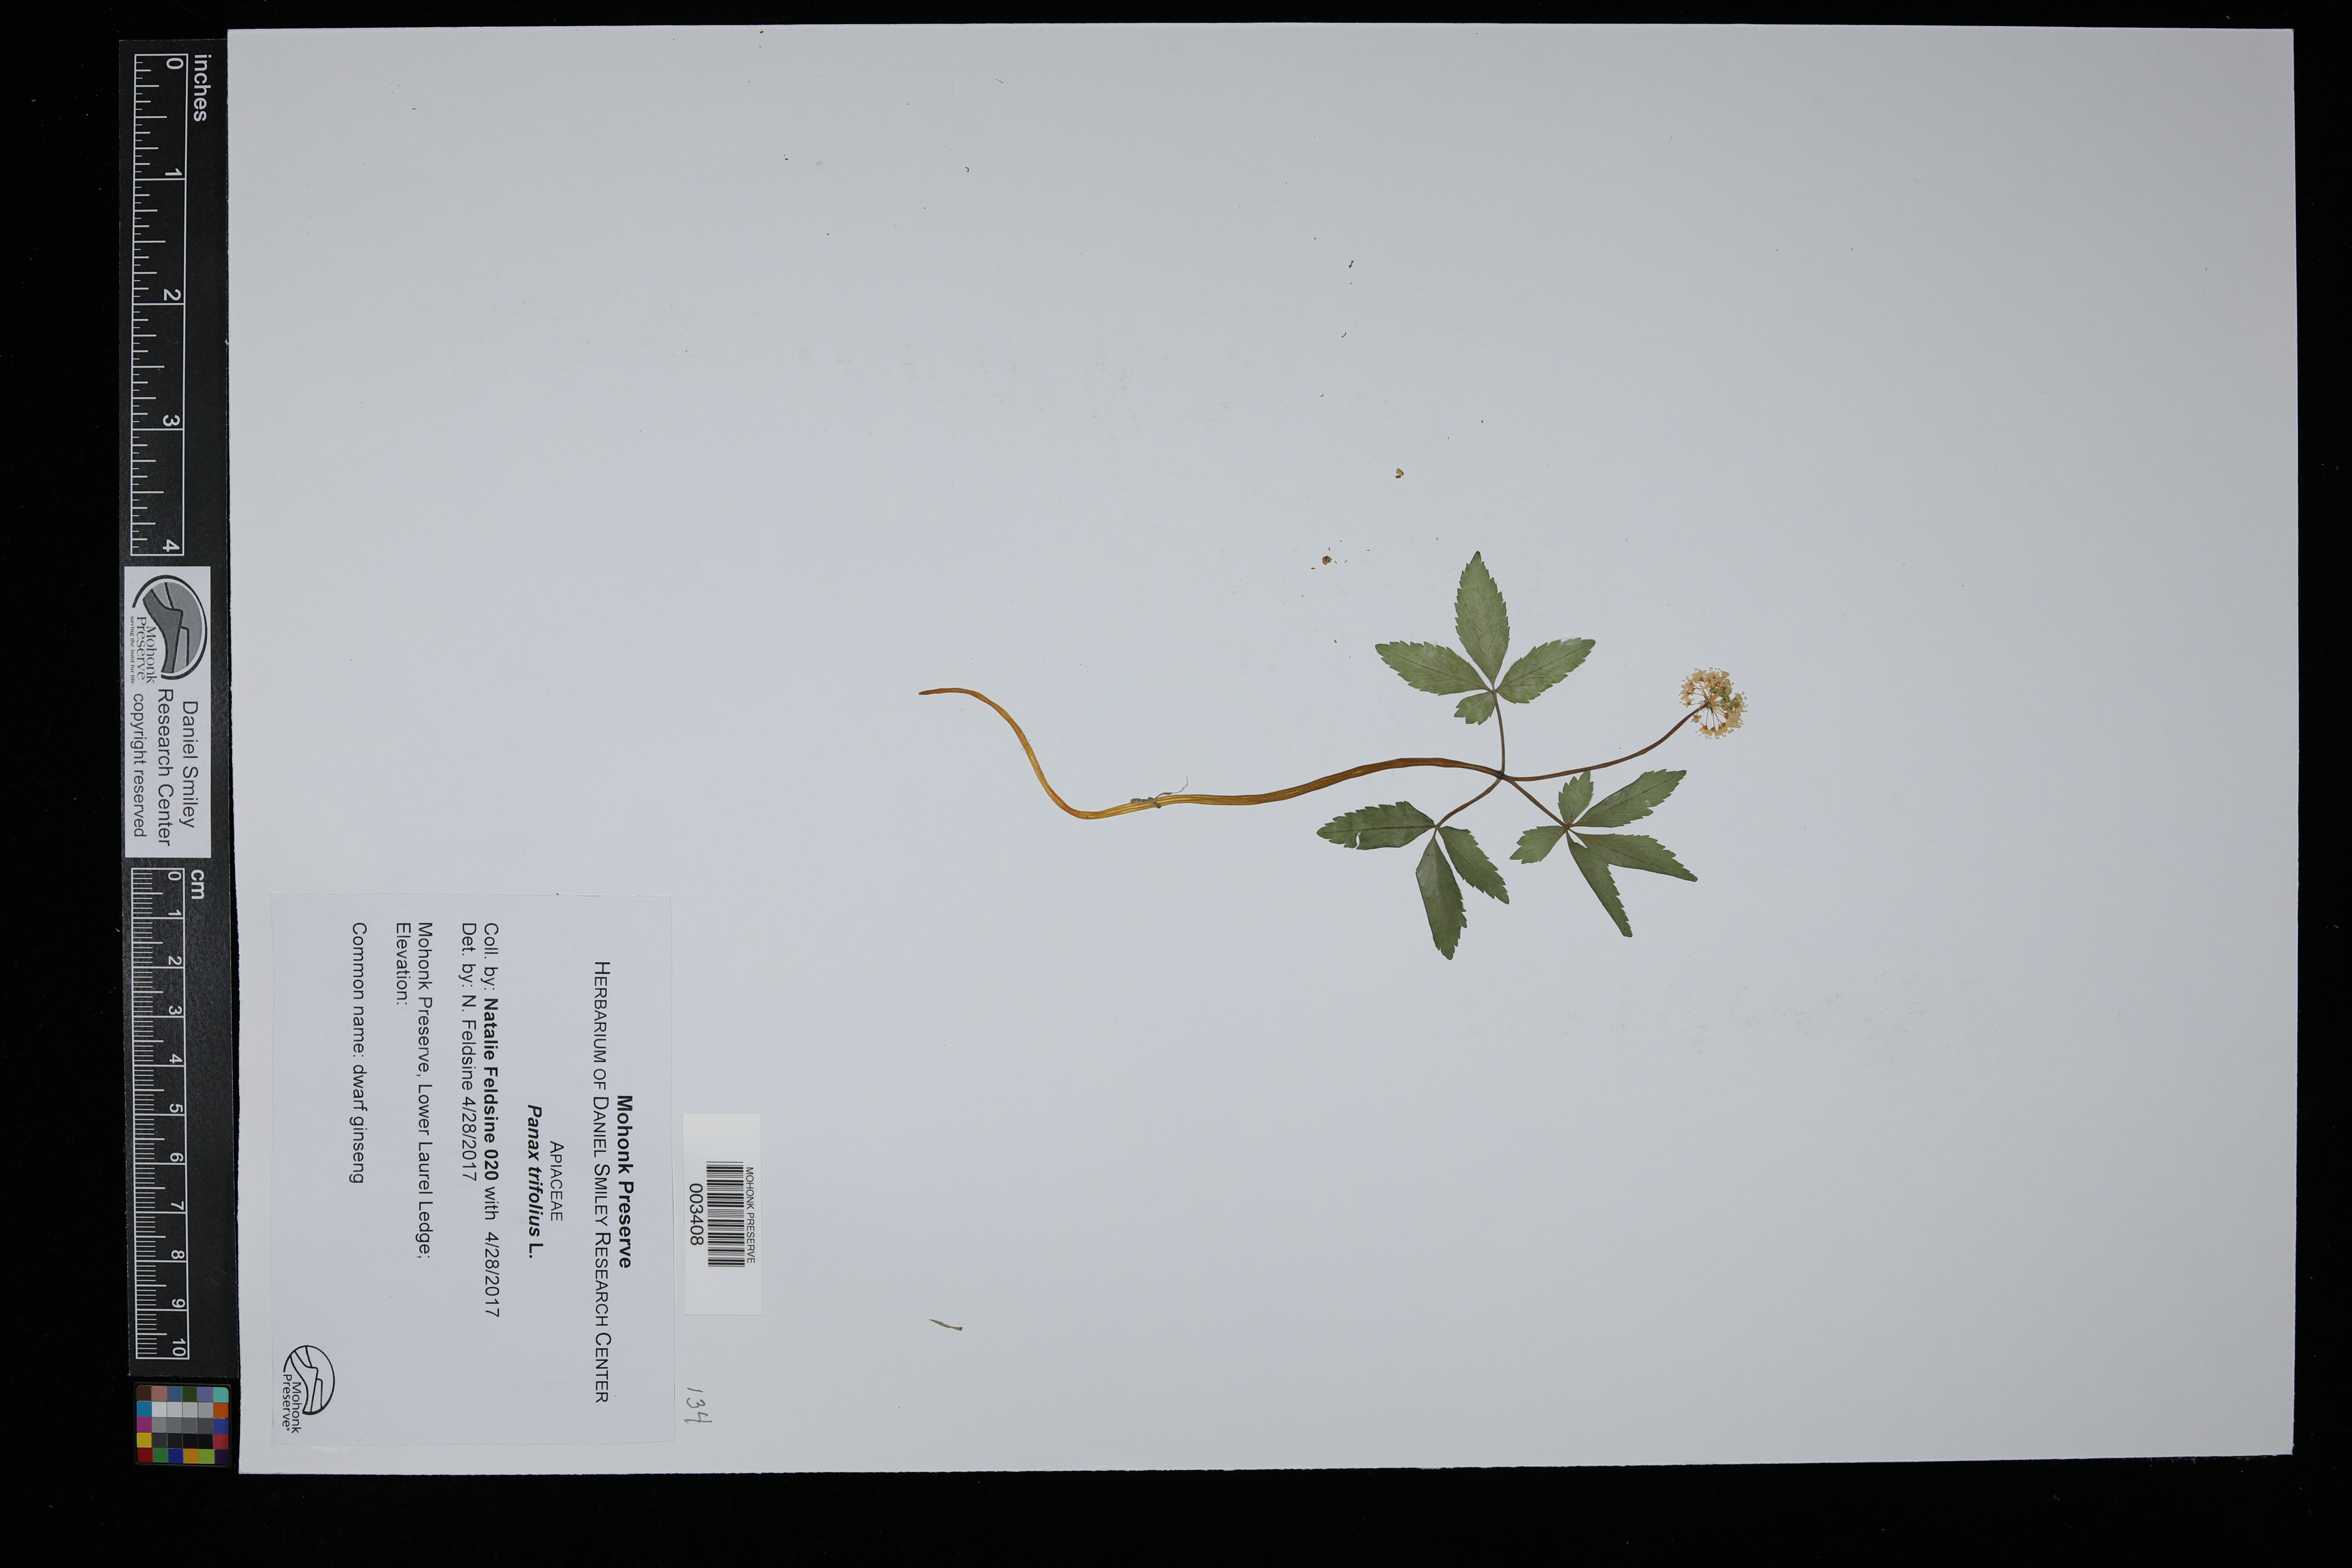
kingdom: Plantae
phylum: Tracheophyta
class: Magnoliopsida
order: Apiales
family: Araliaceae
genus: Panax
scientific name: Panax trifolius
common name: Dwarf ginseng
